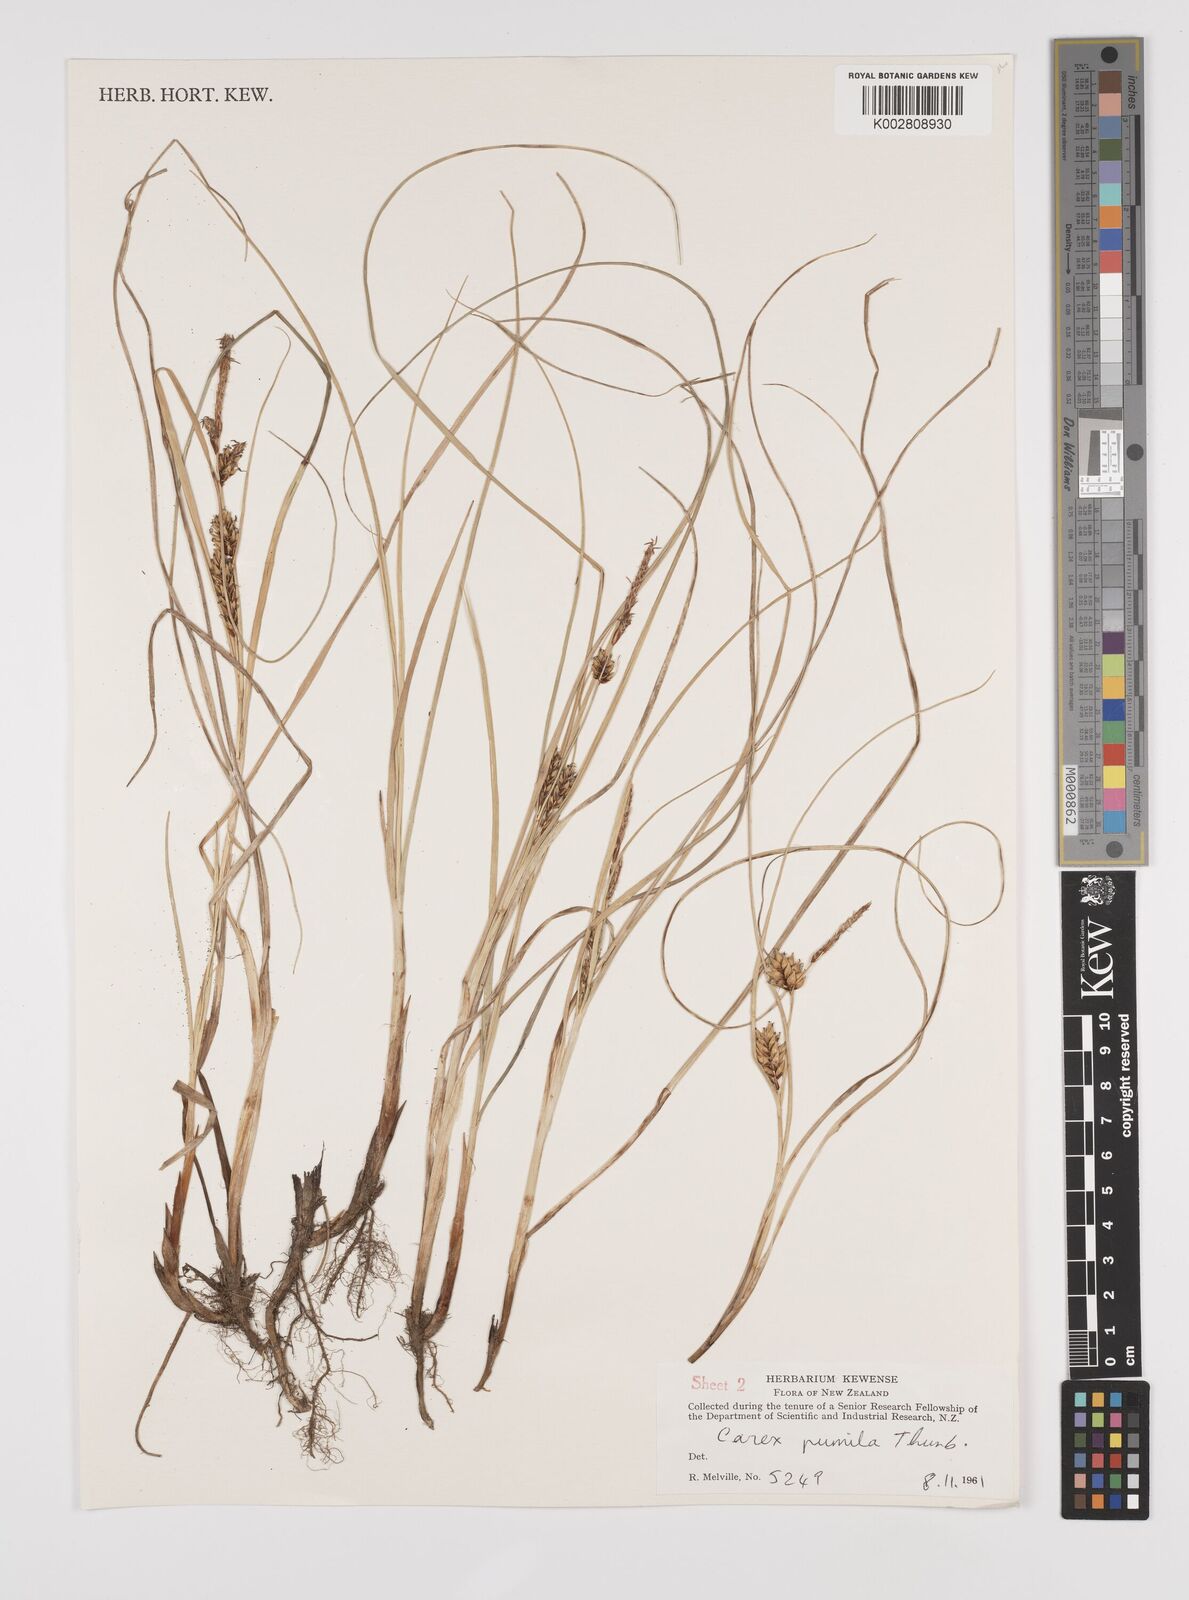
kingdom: Plantae
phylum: Tracheophyta
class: Liliopsida
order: Poales
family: Cyperaceae
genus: Carex
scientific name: Carex pumila
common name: Dwarf sedge
